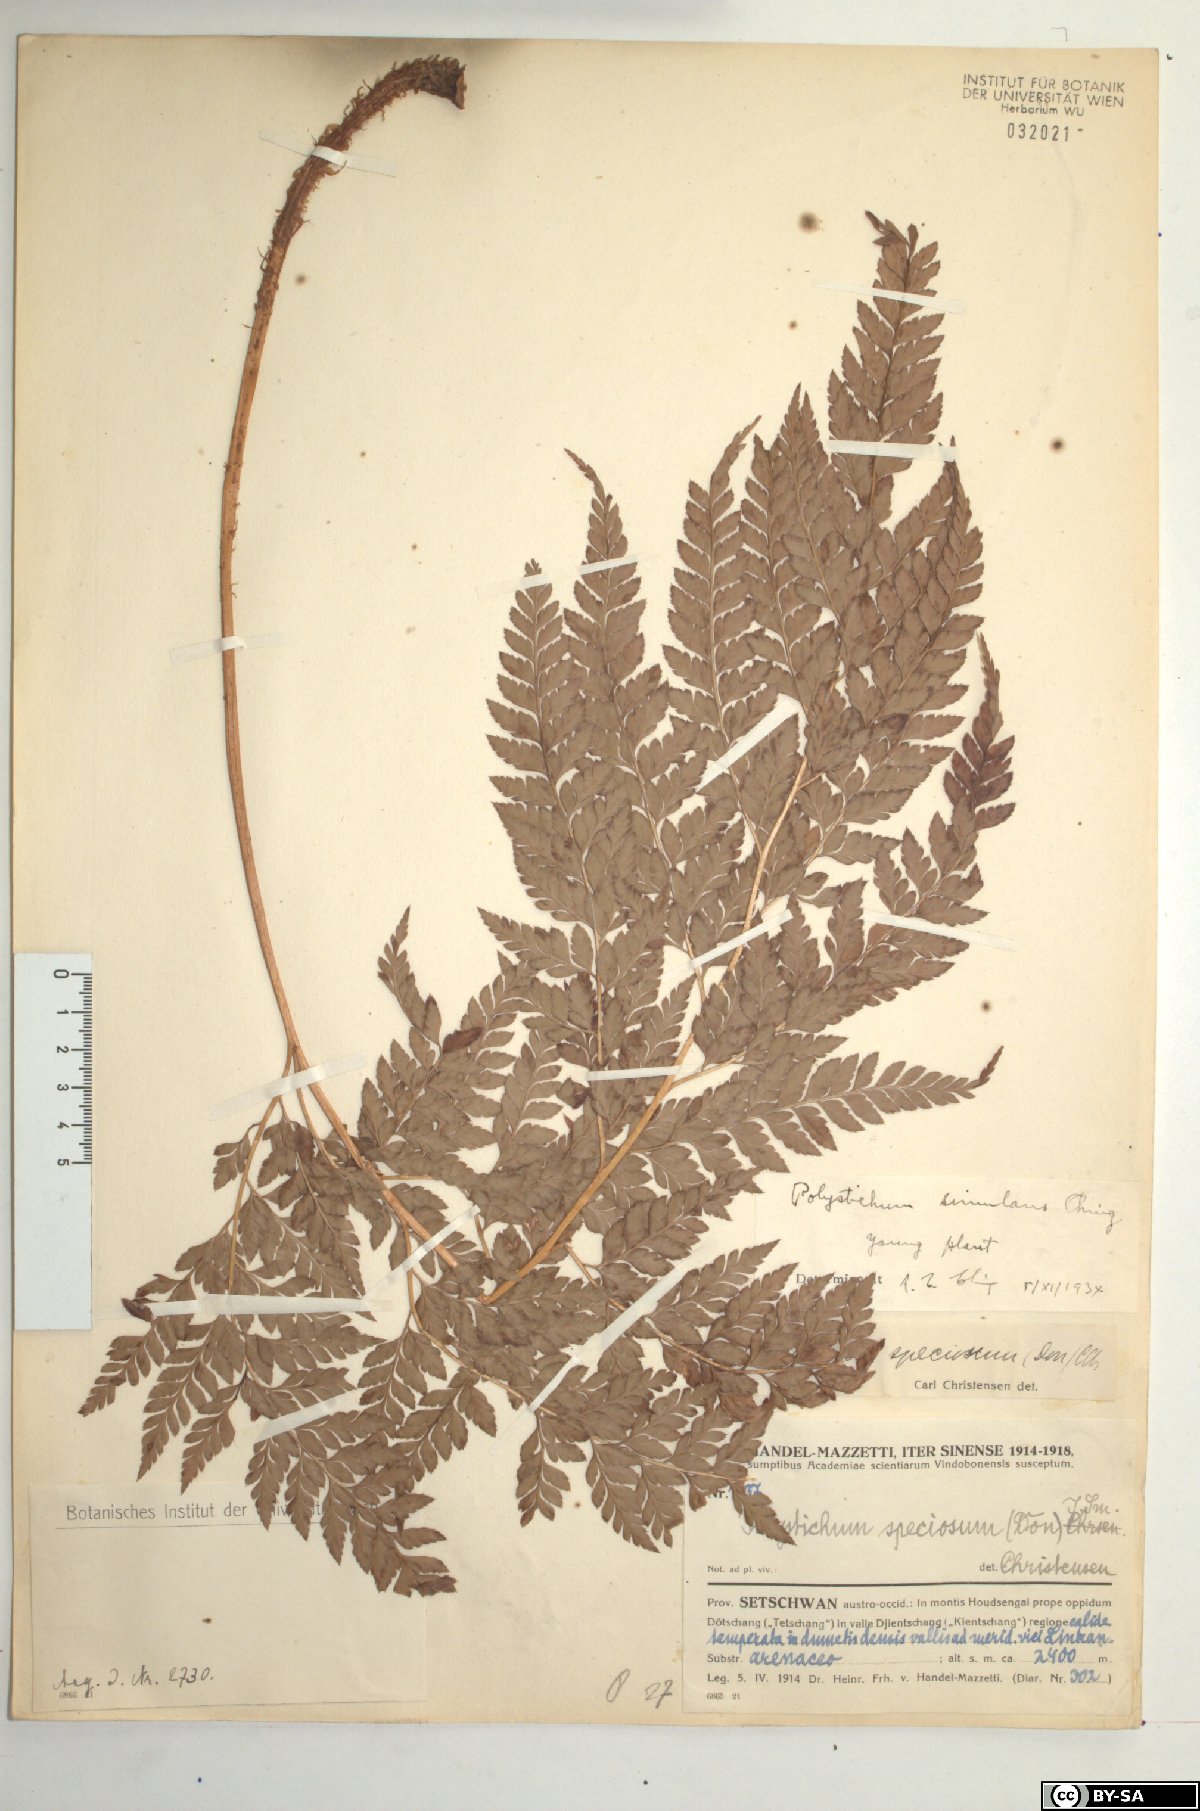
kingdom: Plantae
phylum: Tracheophyta
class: Polypodiopsida
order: Polypodiales
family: Dryopteridaceae
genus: Arachniodes
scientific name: Arachniodes coniifolia
